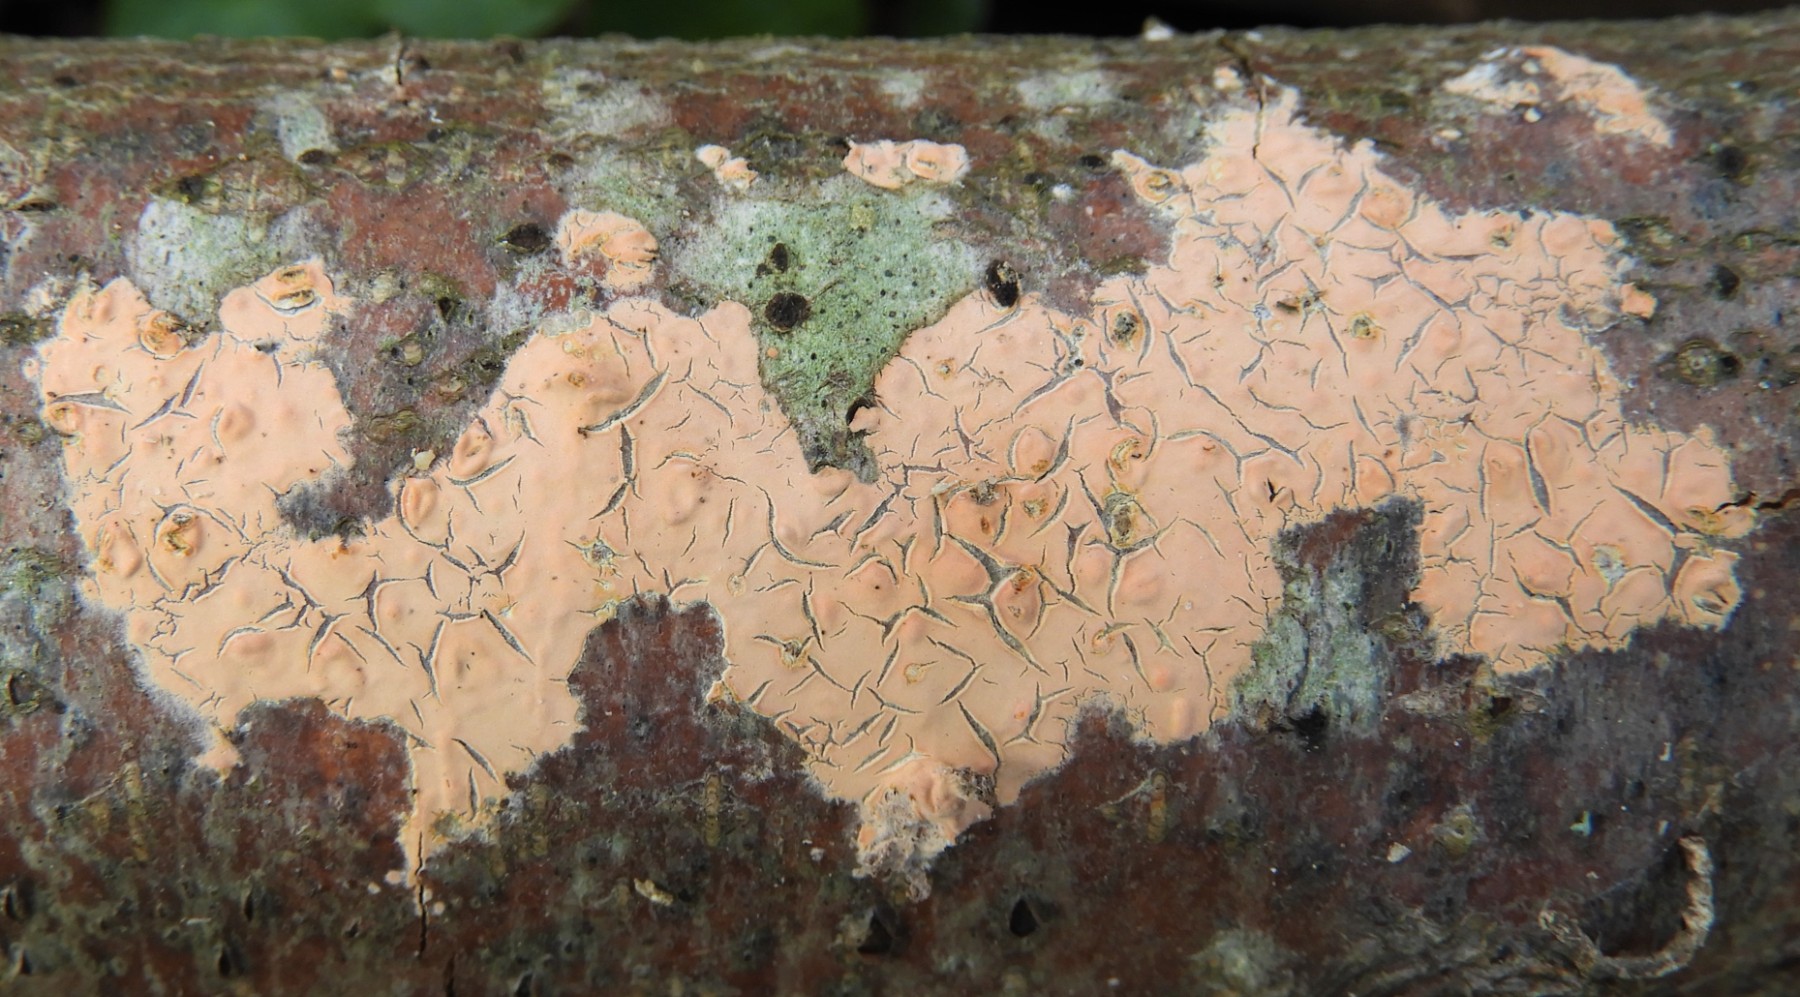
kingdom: Fungi
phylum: Basidiomycota
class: Agaricomycetes
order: Russulales
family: Peniophoraceae
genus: Peniophora
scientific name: Peniophora incarnata
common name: laksefarvet voksskind
